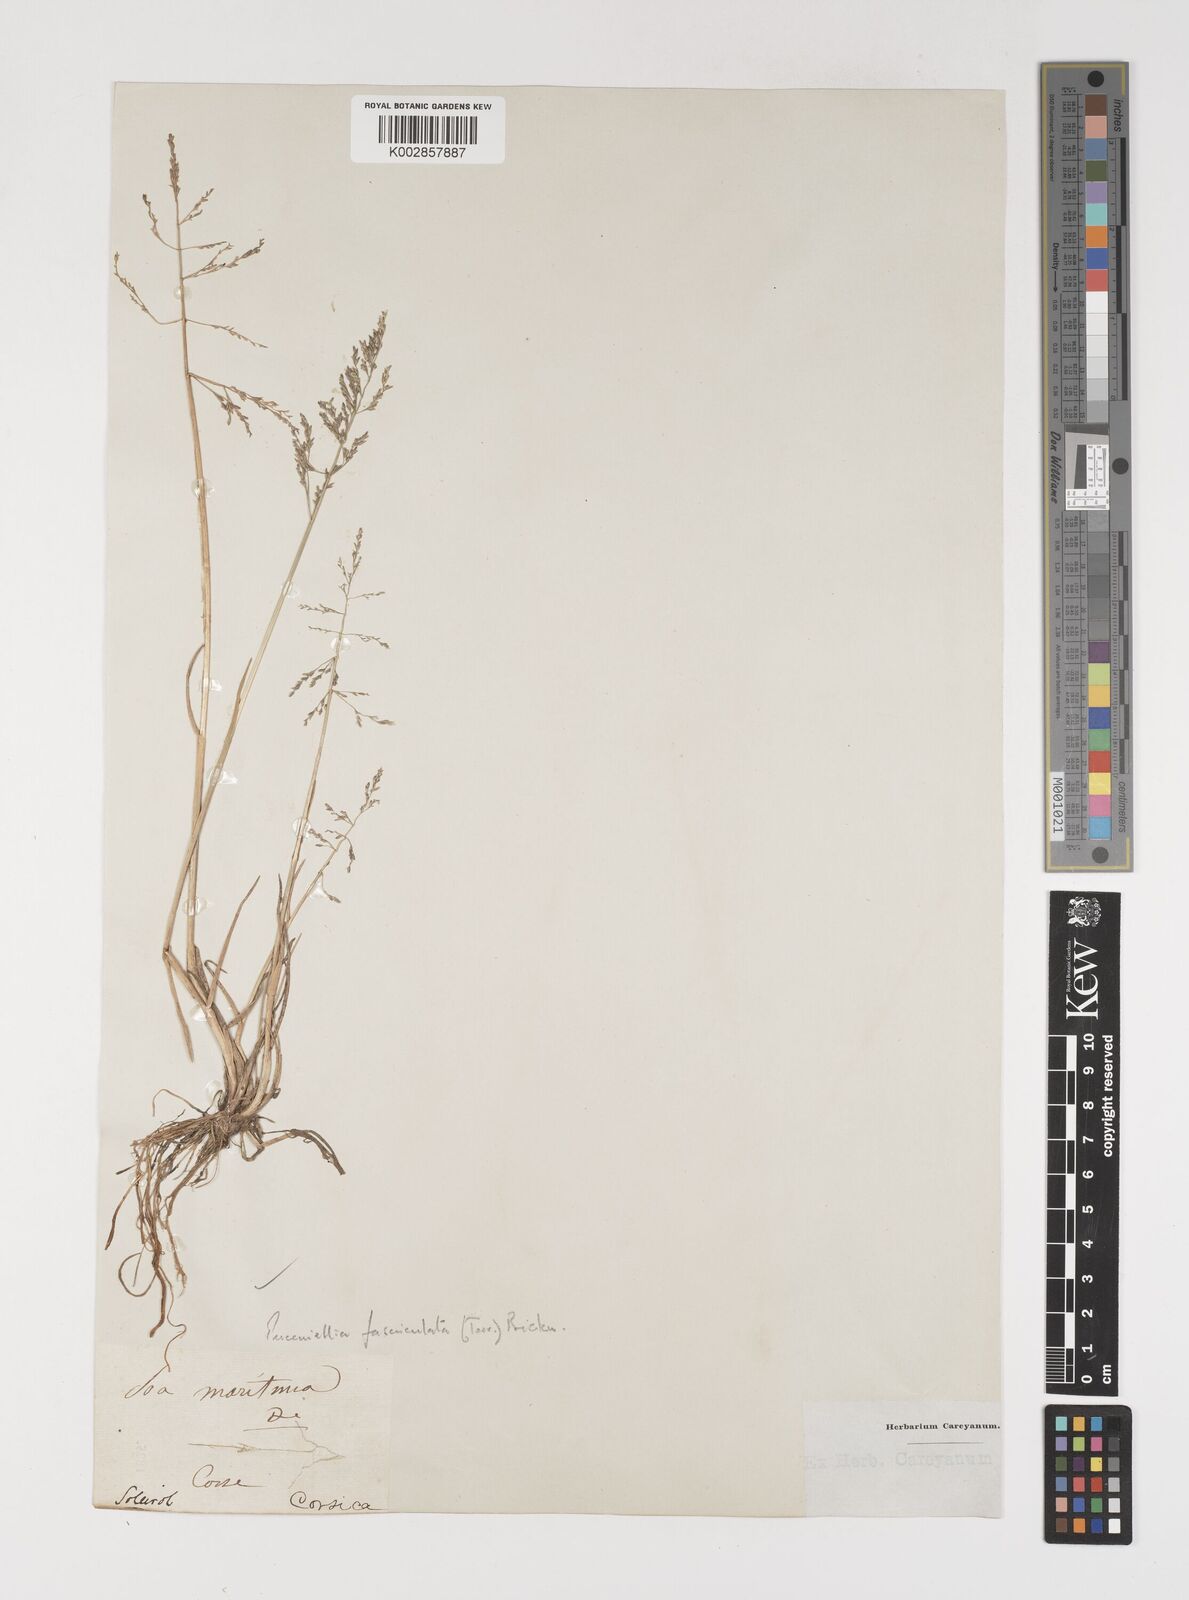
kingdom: Plantae
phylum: Tracheophyta
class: Liliopsida
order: Poales
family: Poaceae
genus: Puccinellia
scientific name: Puccinellia
